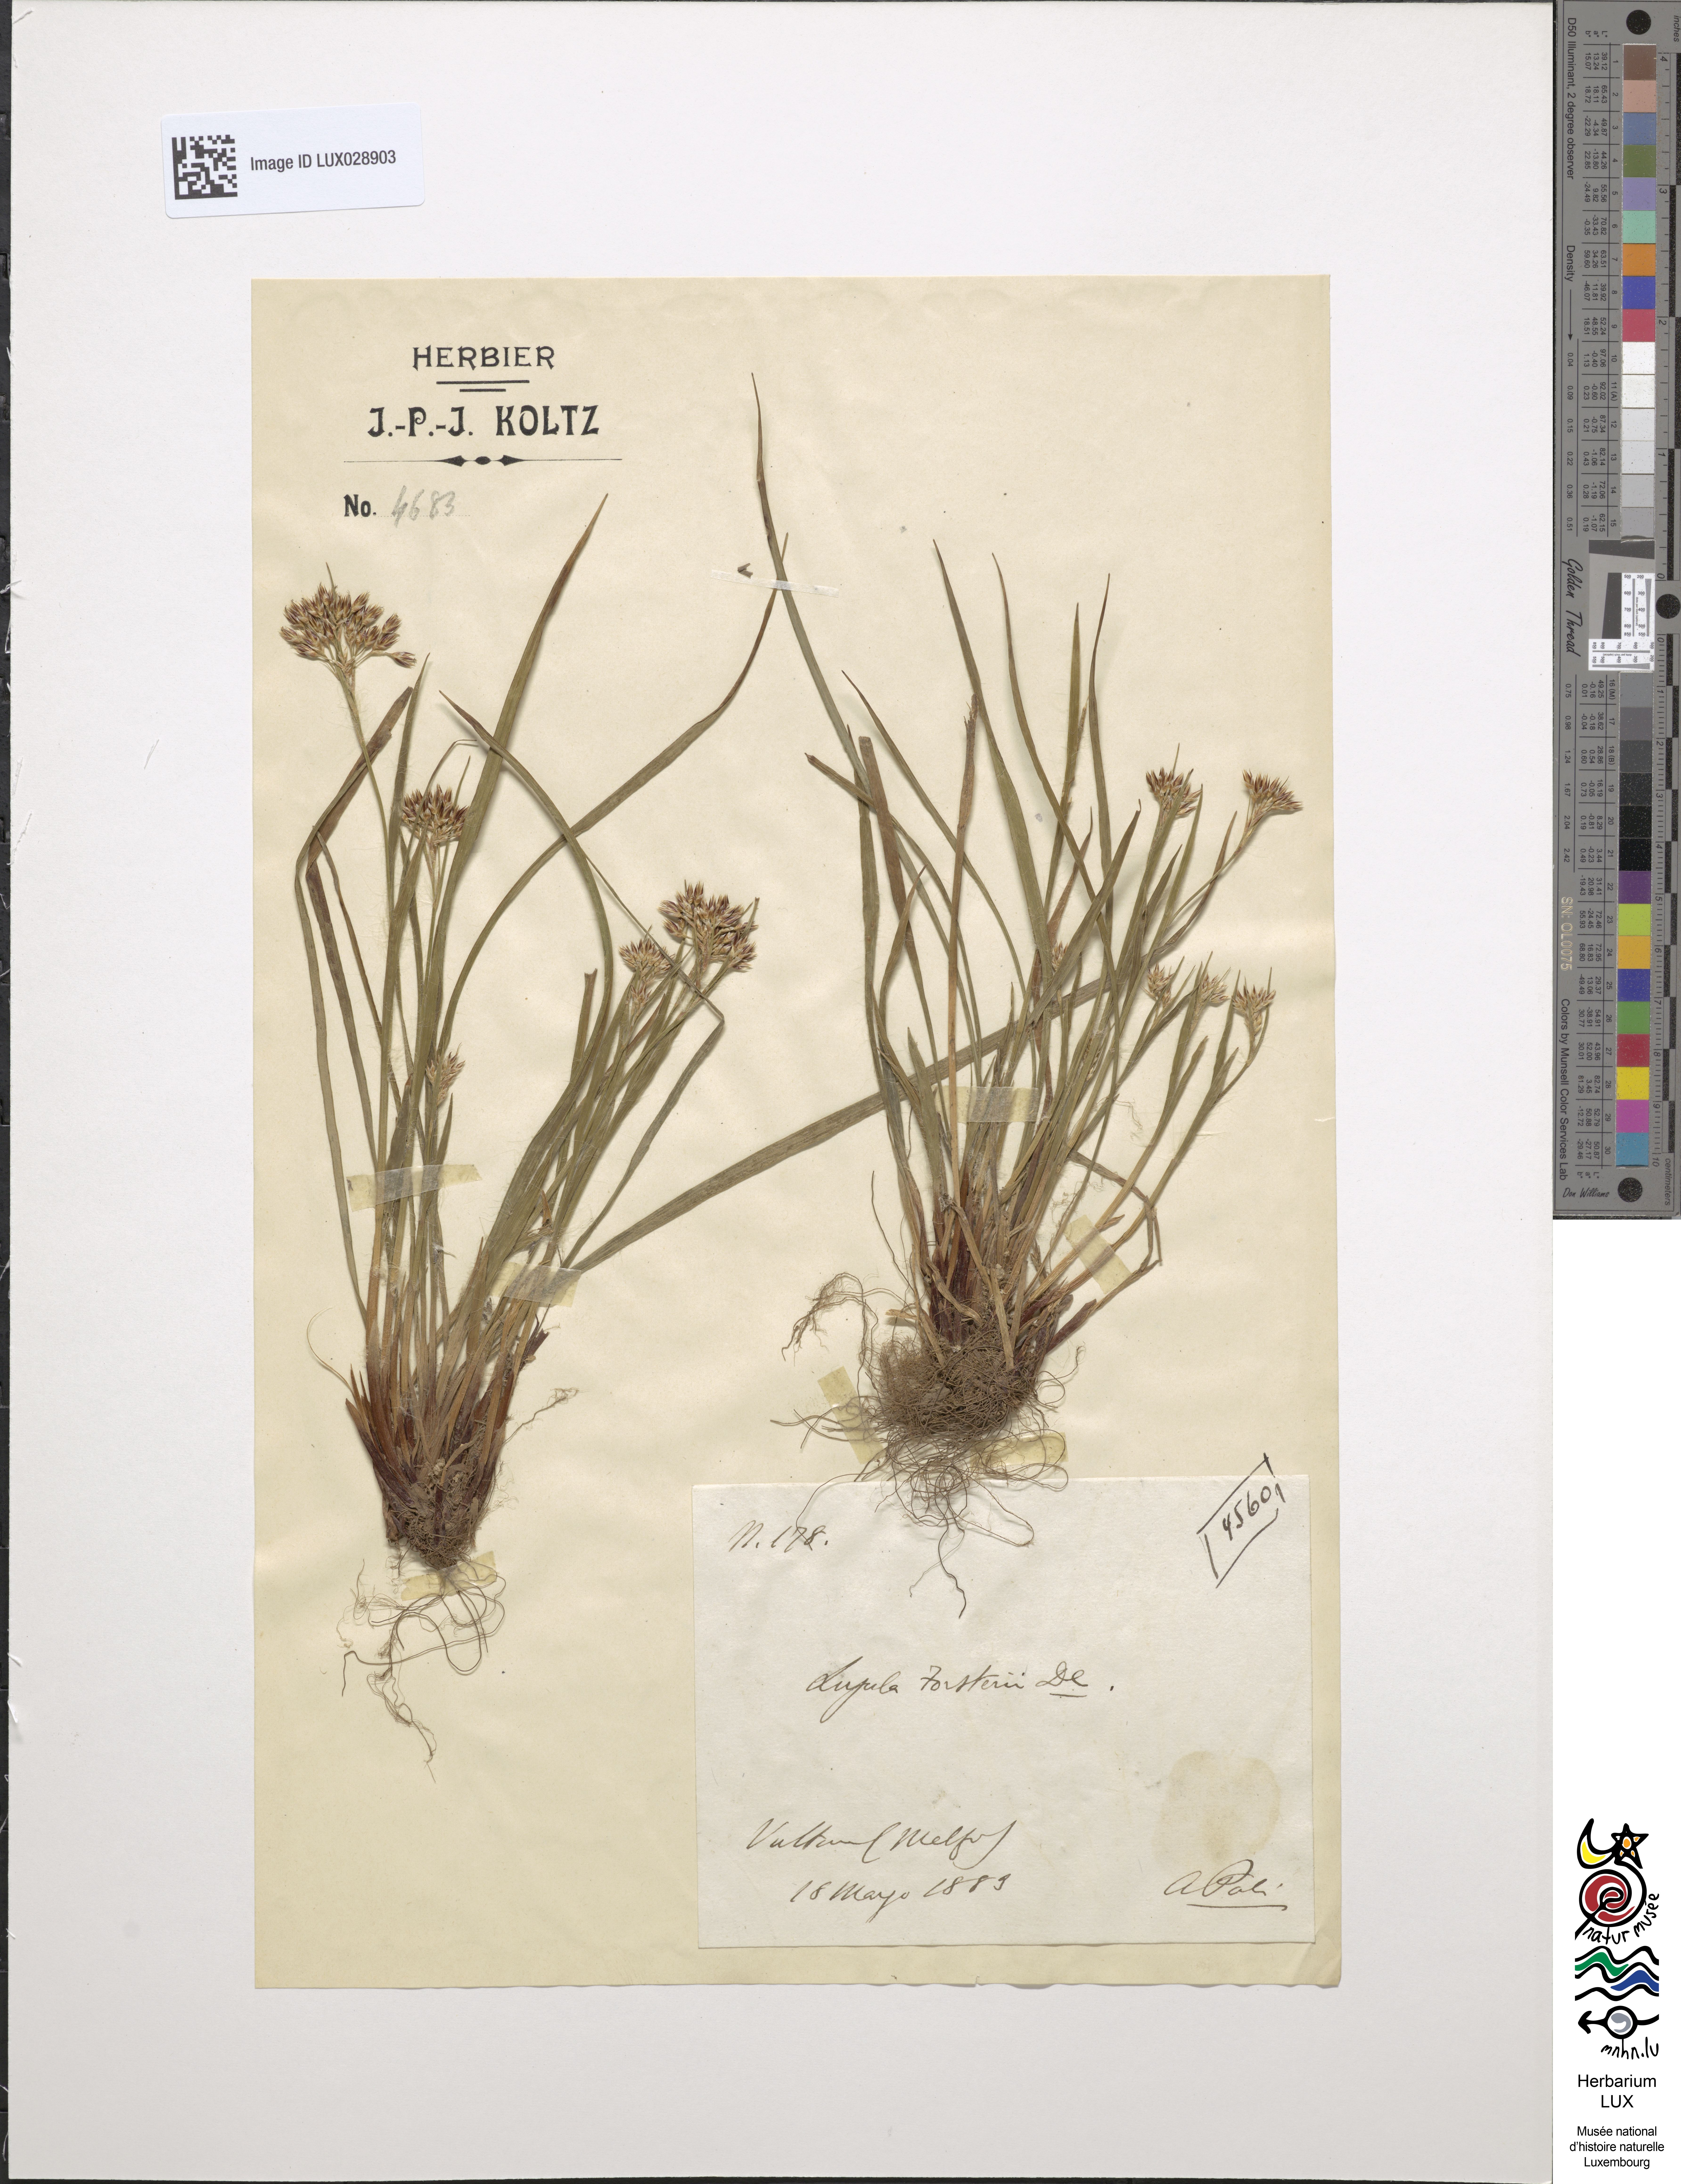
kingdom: Plantae
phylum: Tracheophyta
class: Liliopsida
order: Poales
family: Juncaceae
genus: Luzula
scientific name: Luzula forsteri
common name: Southern wood-rush
